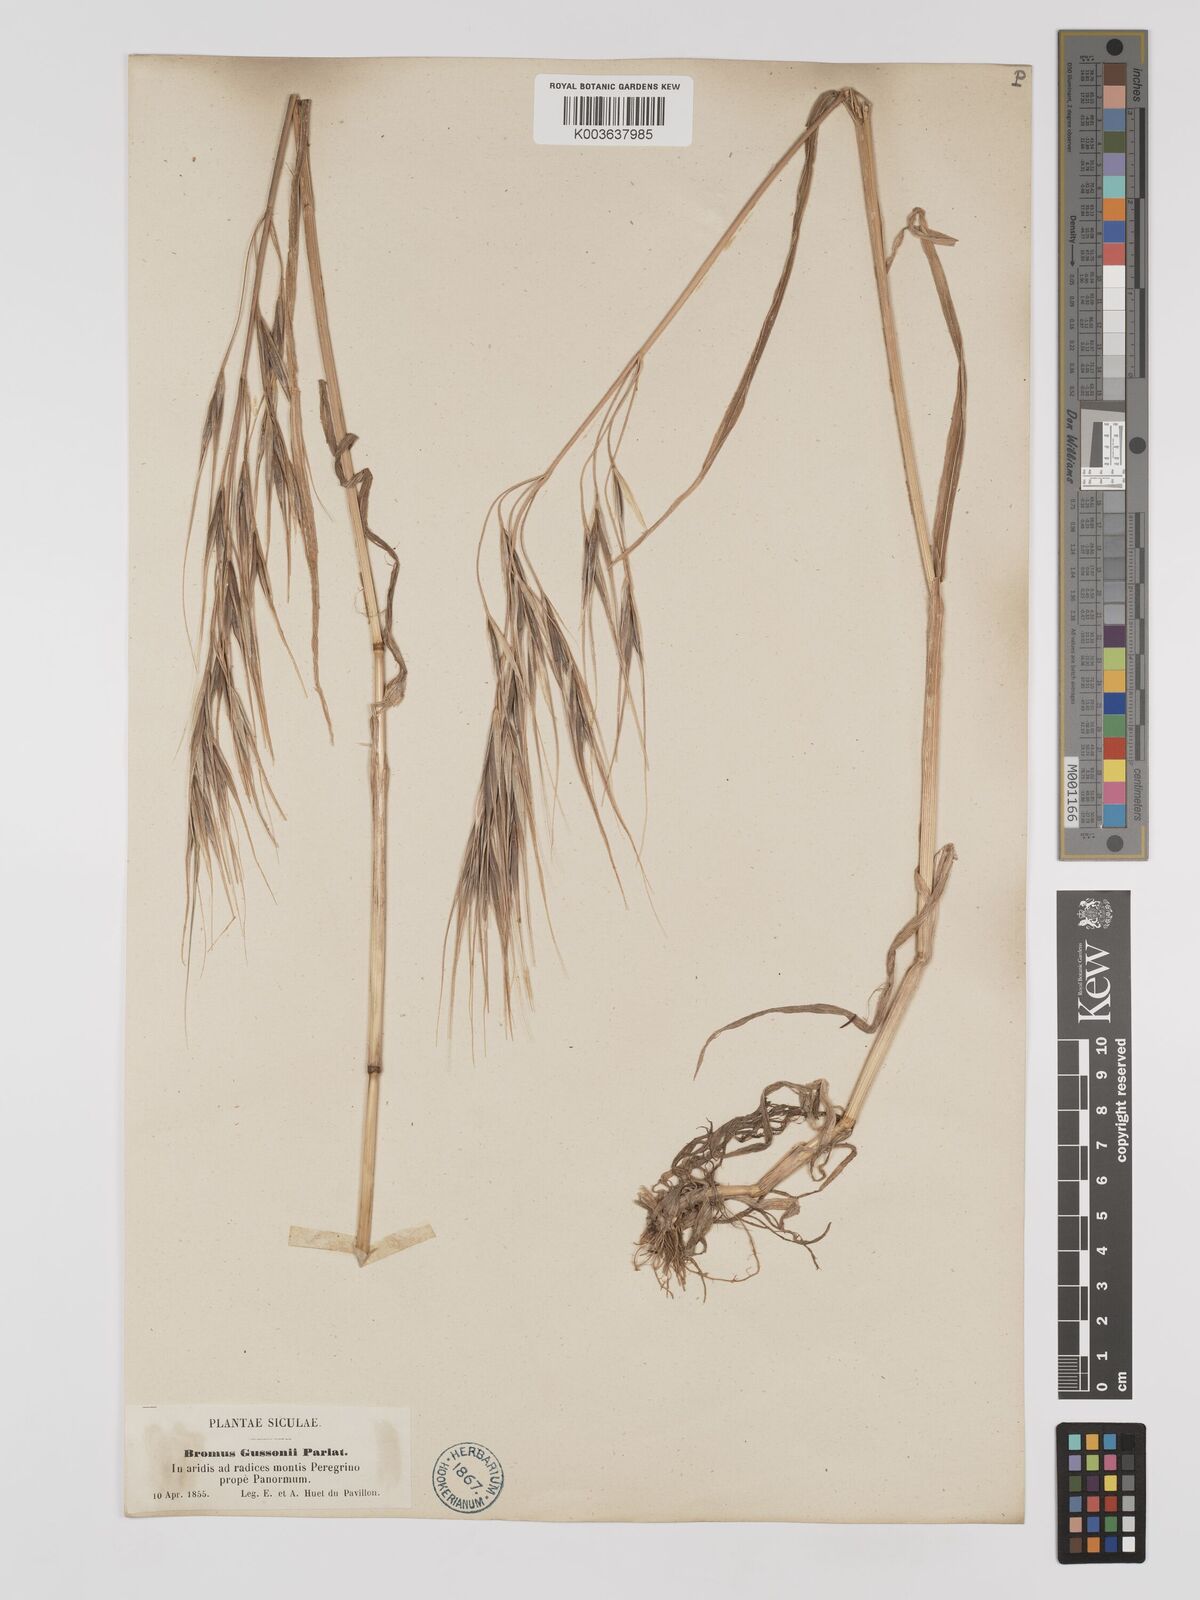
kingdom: Plantae
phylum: Tracheophyta
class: Liliopsida
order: Poales
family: Poaceae
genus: Bromus
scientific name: Bromus
